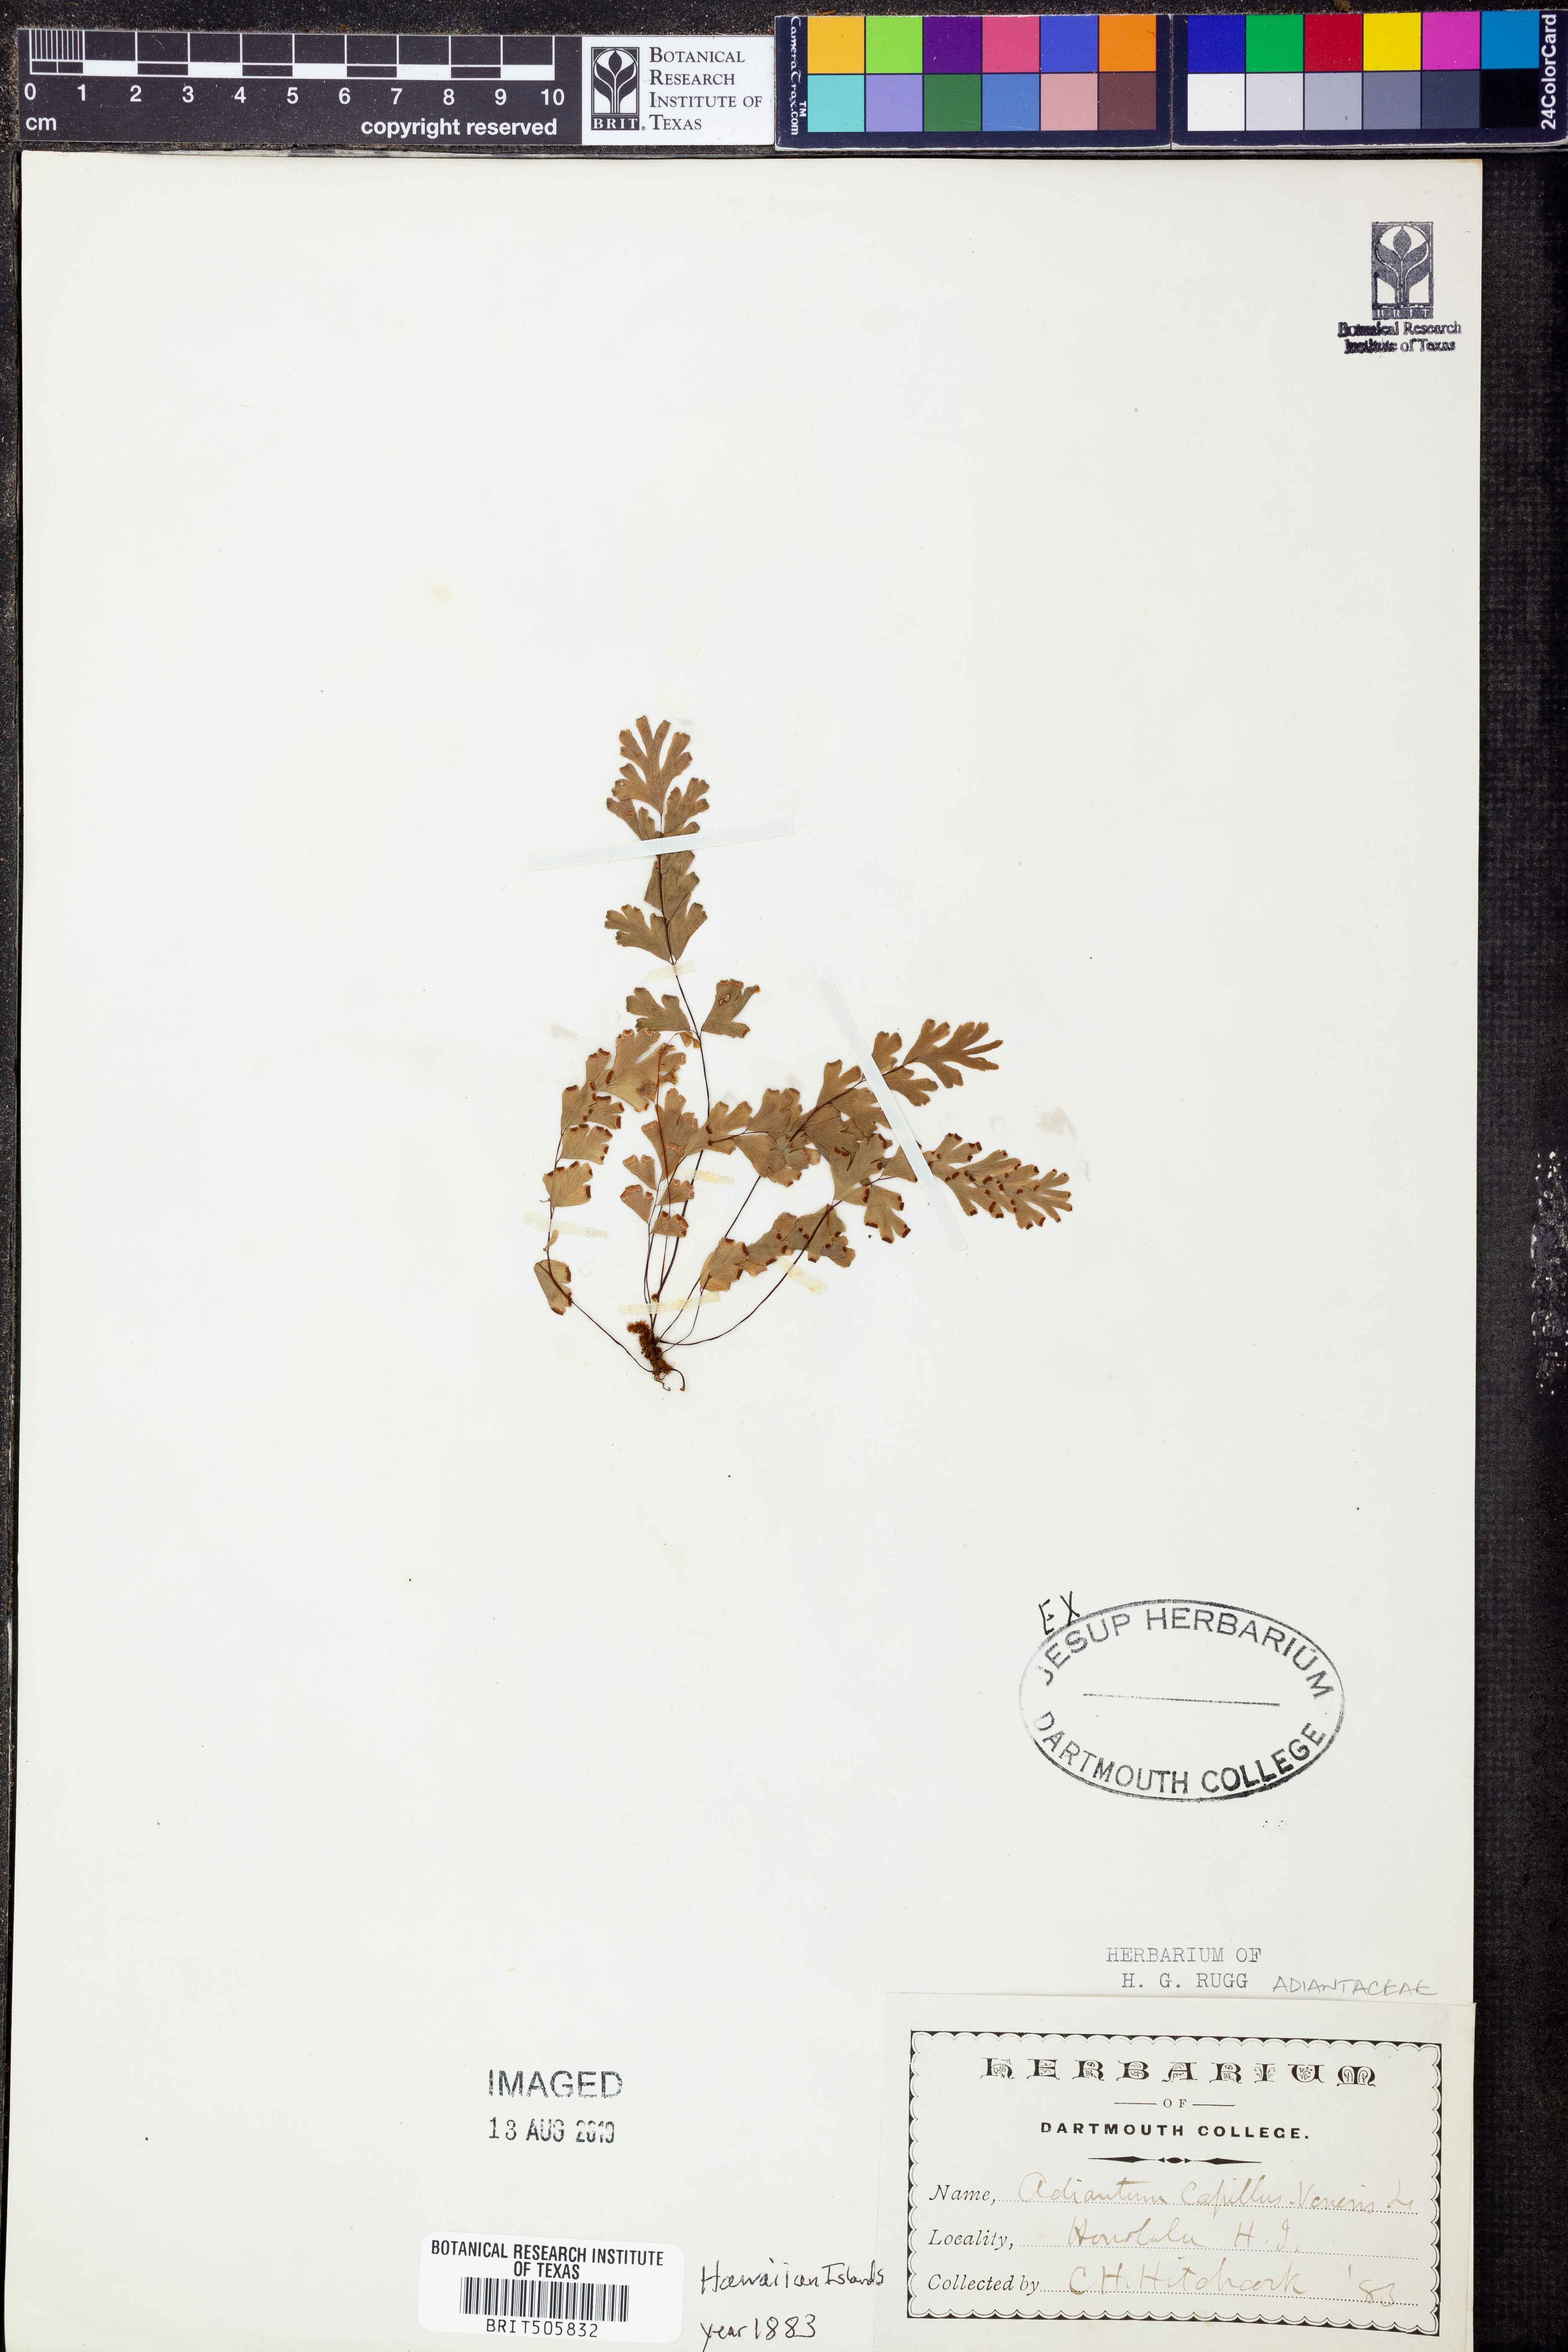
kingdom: Plantae
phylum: Tracheophyta
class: Polypodiopsida
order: Polypodiales
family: Pteridaceae
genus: Adiantum
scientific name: Adiantum capillus-veneris
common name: Maidenhair fern
